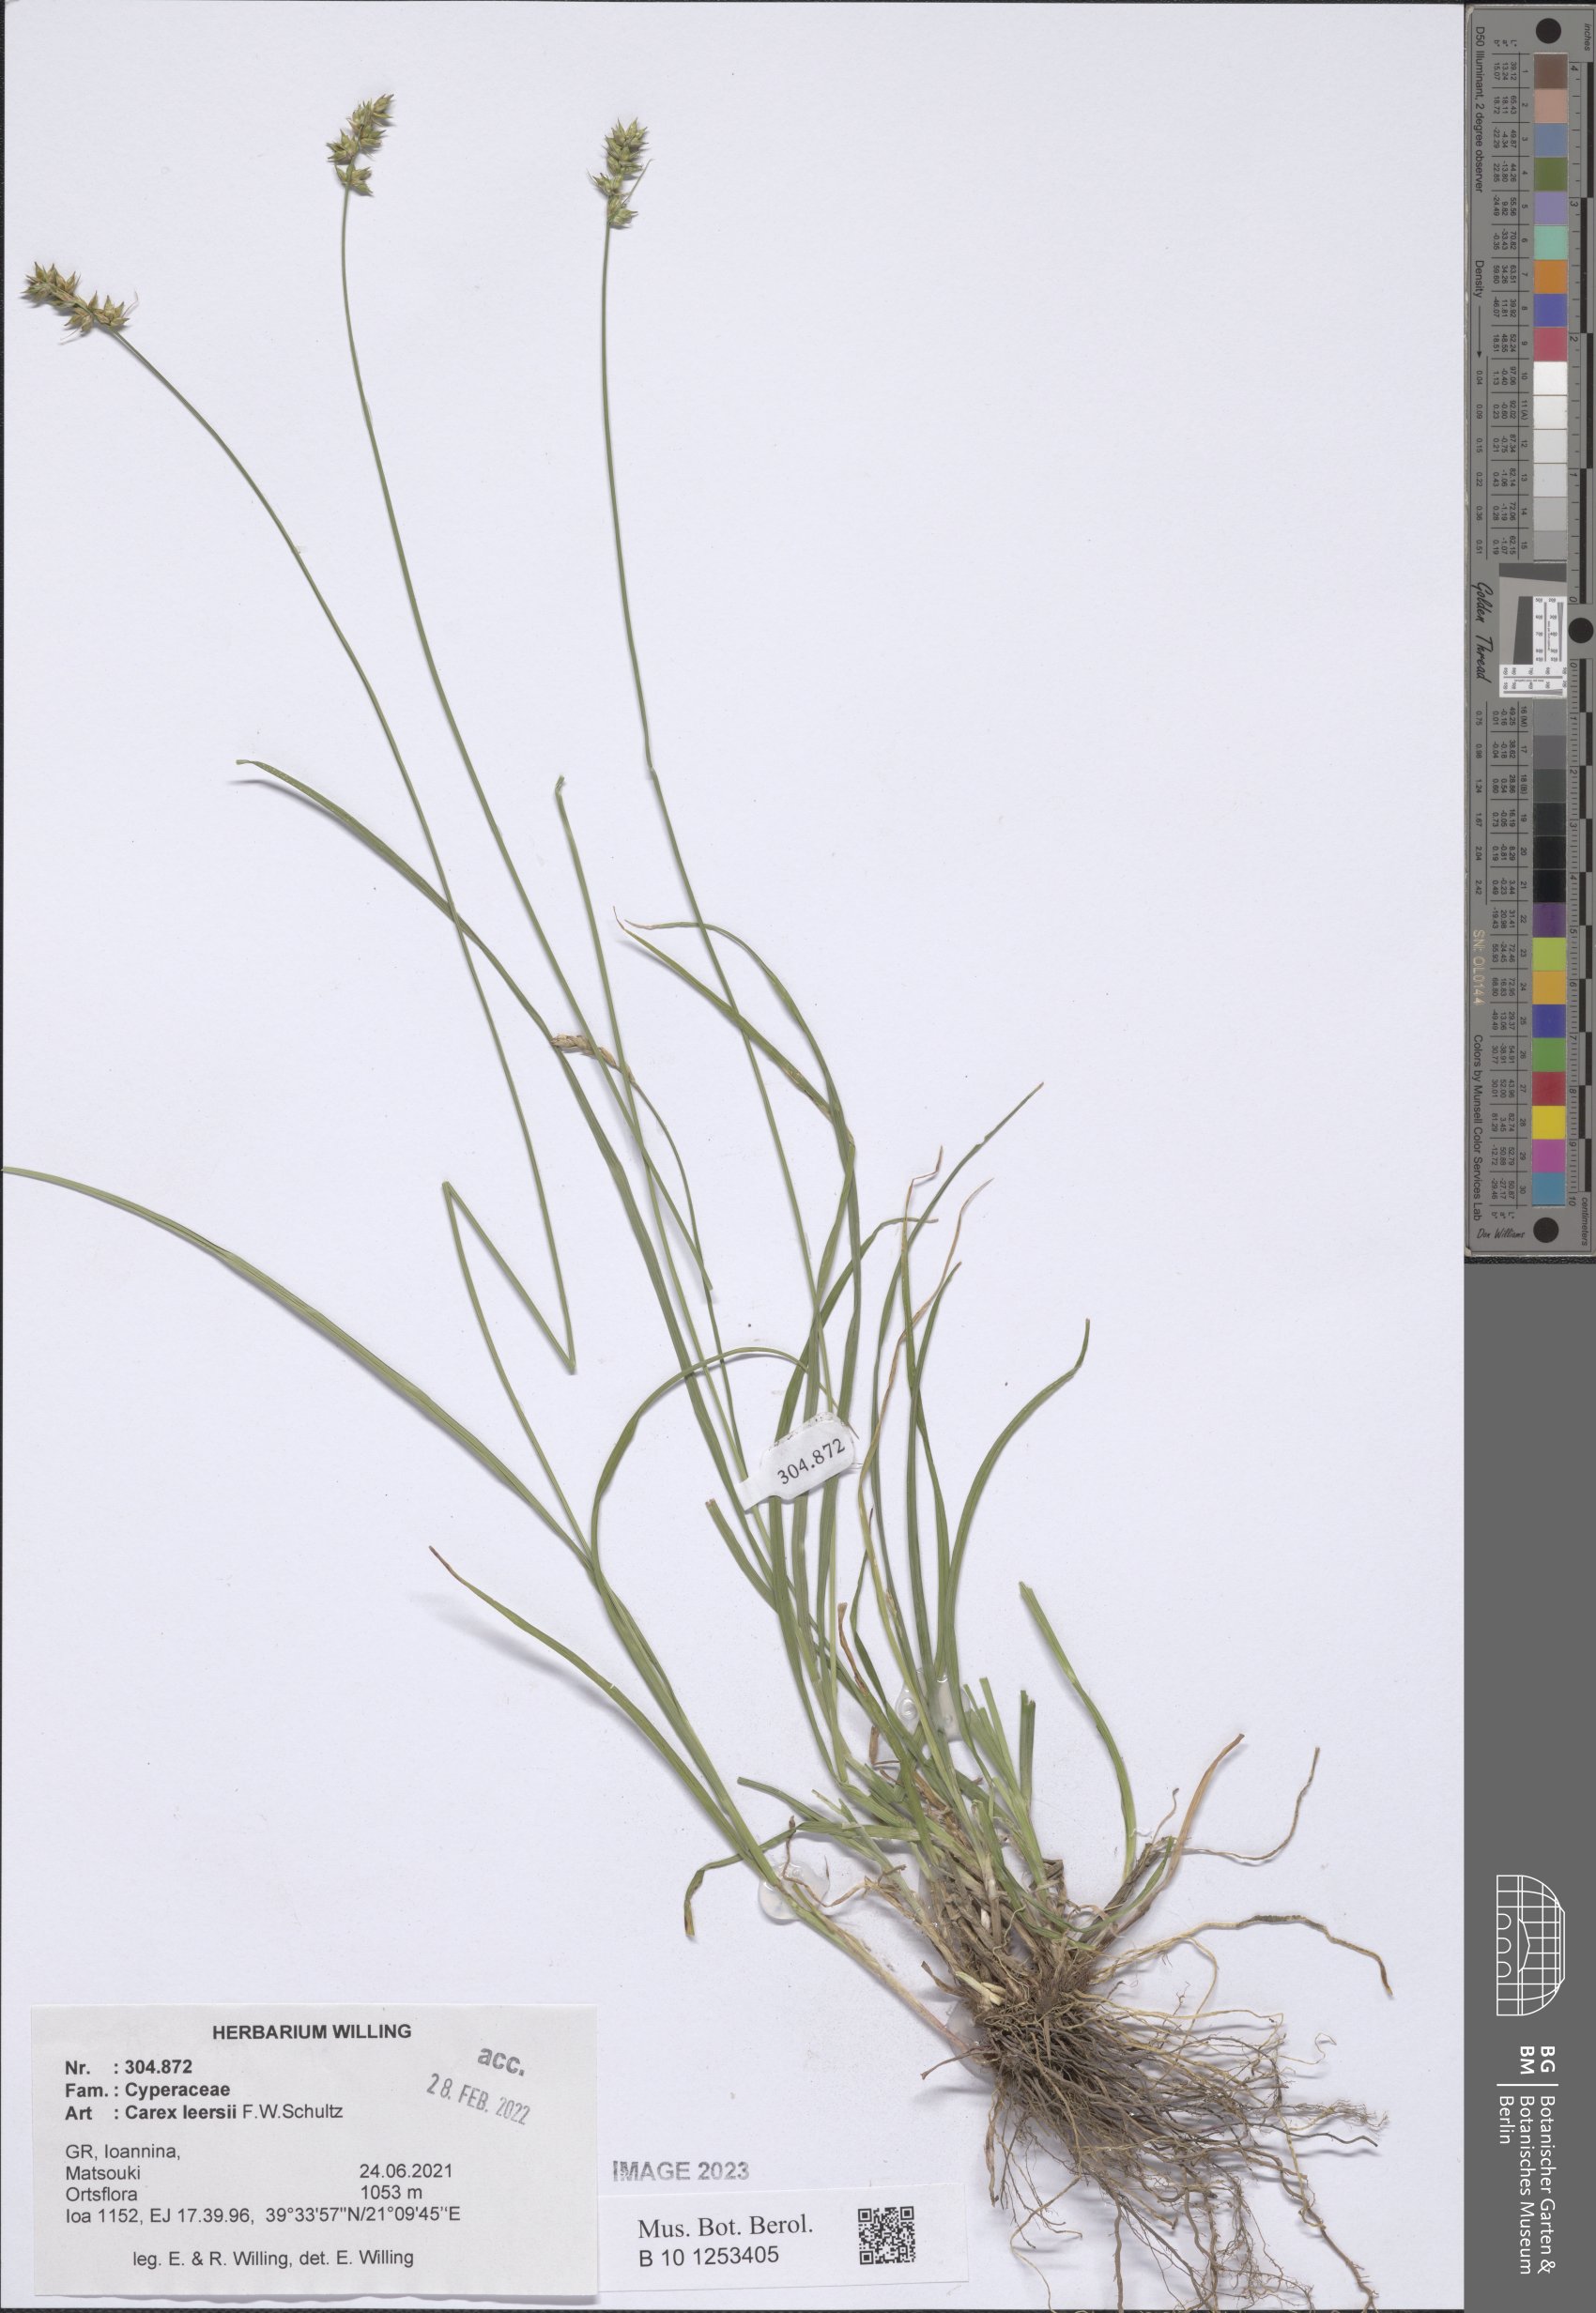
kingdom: Plantae
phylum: Tracheophyta
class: Liliopsida
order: Poales
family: Cyperaceae
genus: Carex
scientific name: Carex leersii
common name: Leers' sedge
